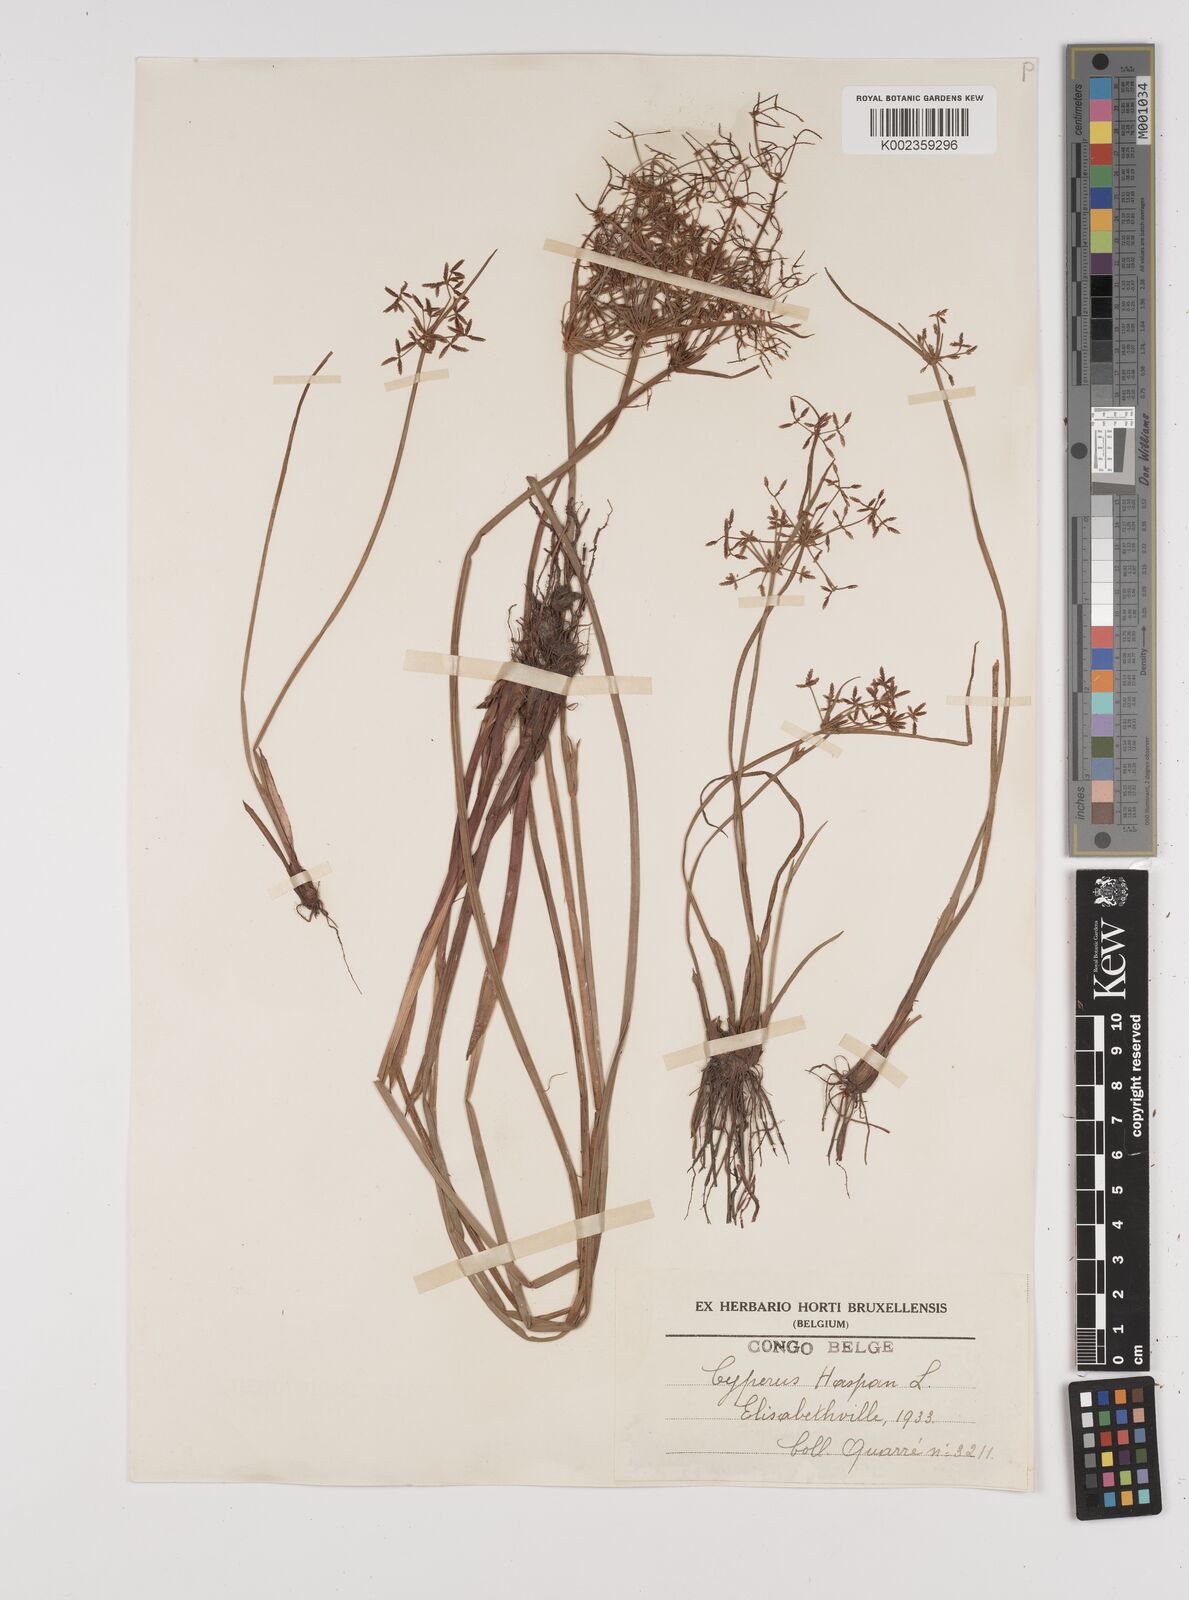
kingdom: Plantae
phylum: Tracheophyta
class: Liliopsida
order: Poales
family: Cyperaceae
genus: Cyperus
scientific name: Cyperus haspan
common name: Haspan flatsedge
